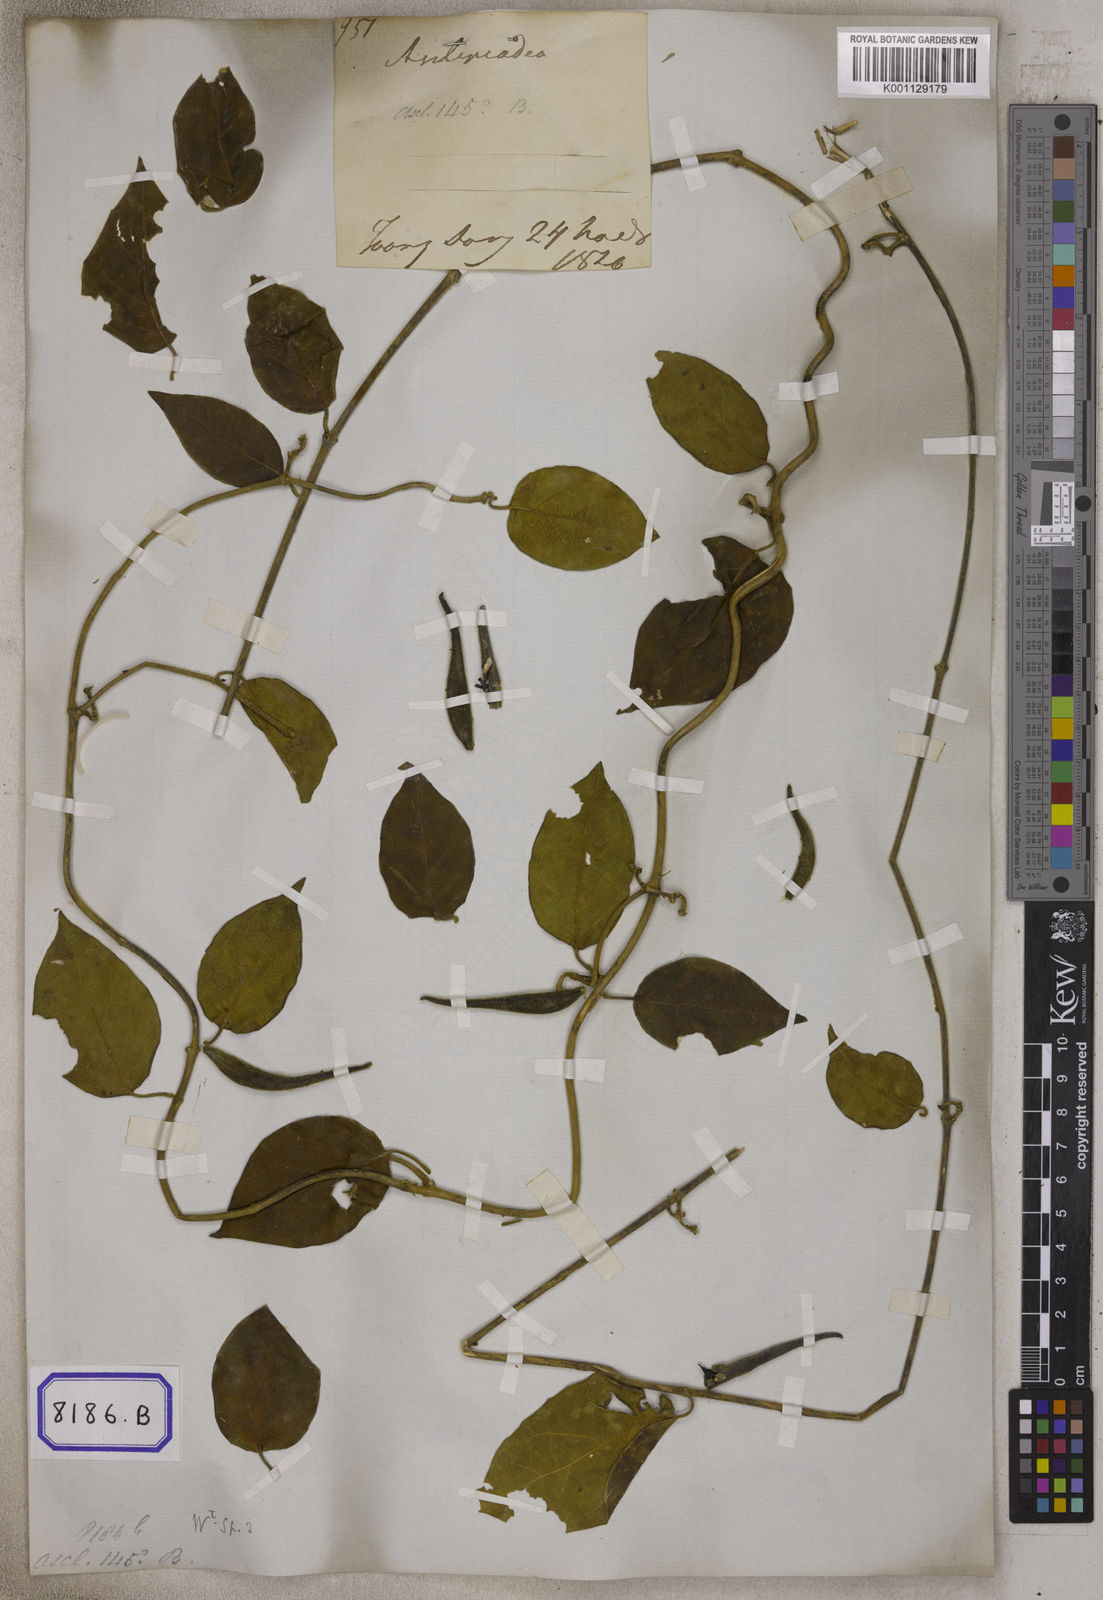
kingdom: Plantae
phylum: Tracheophyta
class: Magnoliopsida
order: Gentianales
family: Apocynaceae
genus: Gymnema
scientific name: Gymnema molle
